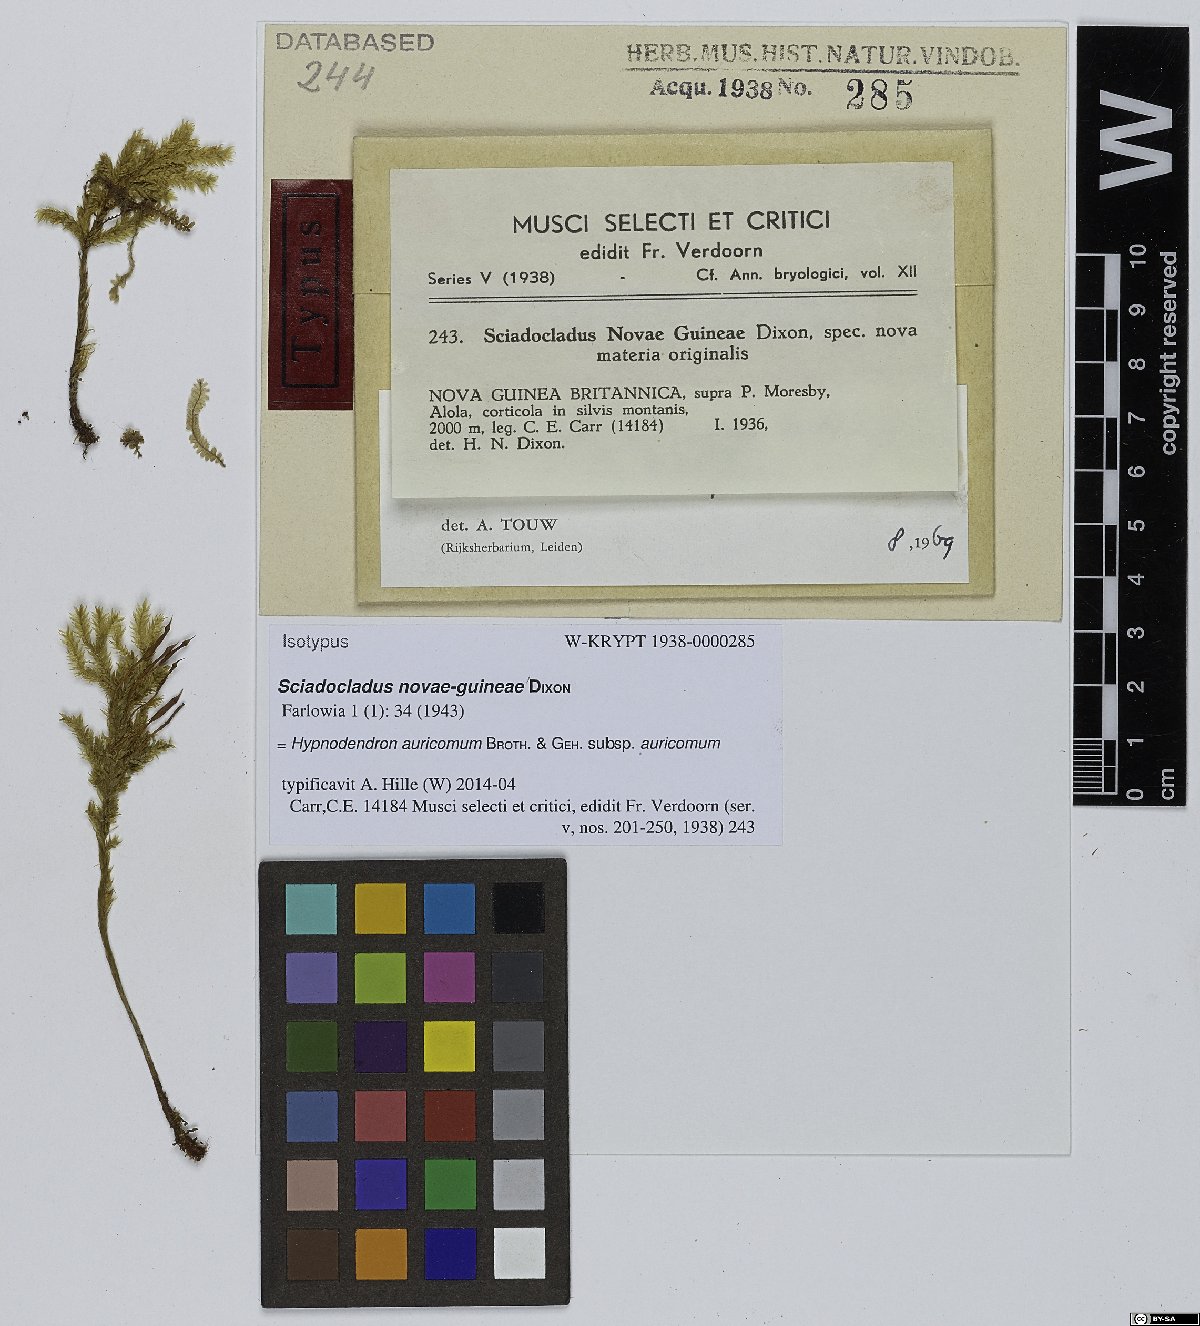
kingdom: Plantae
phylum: Bryophyta
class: Bryopsida
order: Hypnodendrales
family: Spiridentaceae
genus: Dendro-hypnum
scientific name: Dendro-hypnum auricomum
